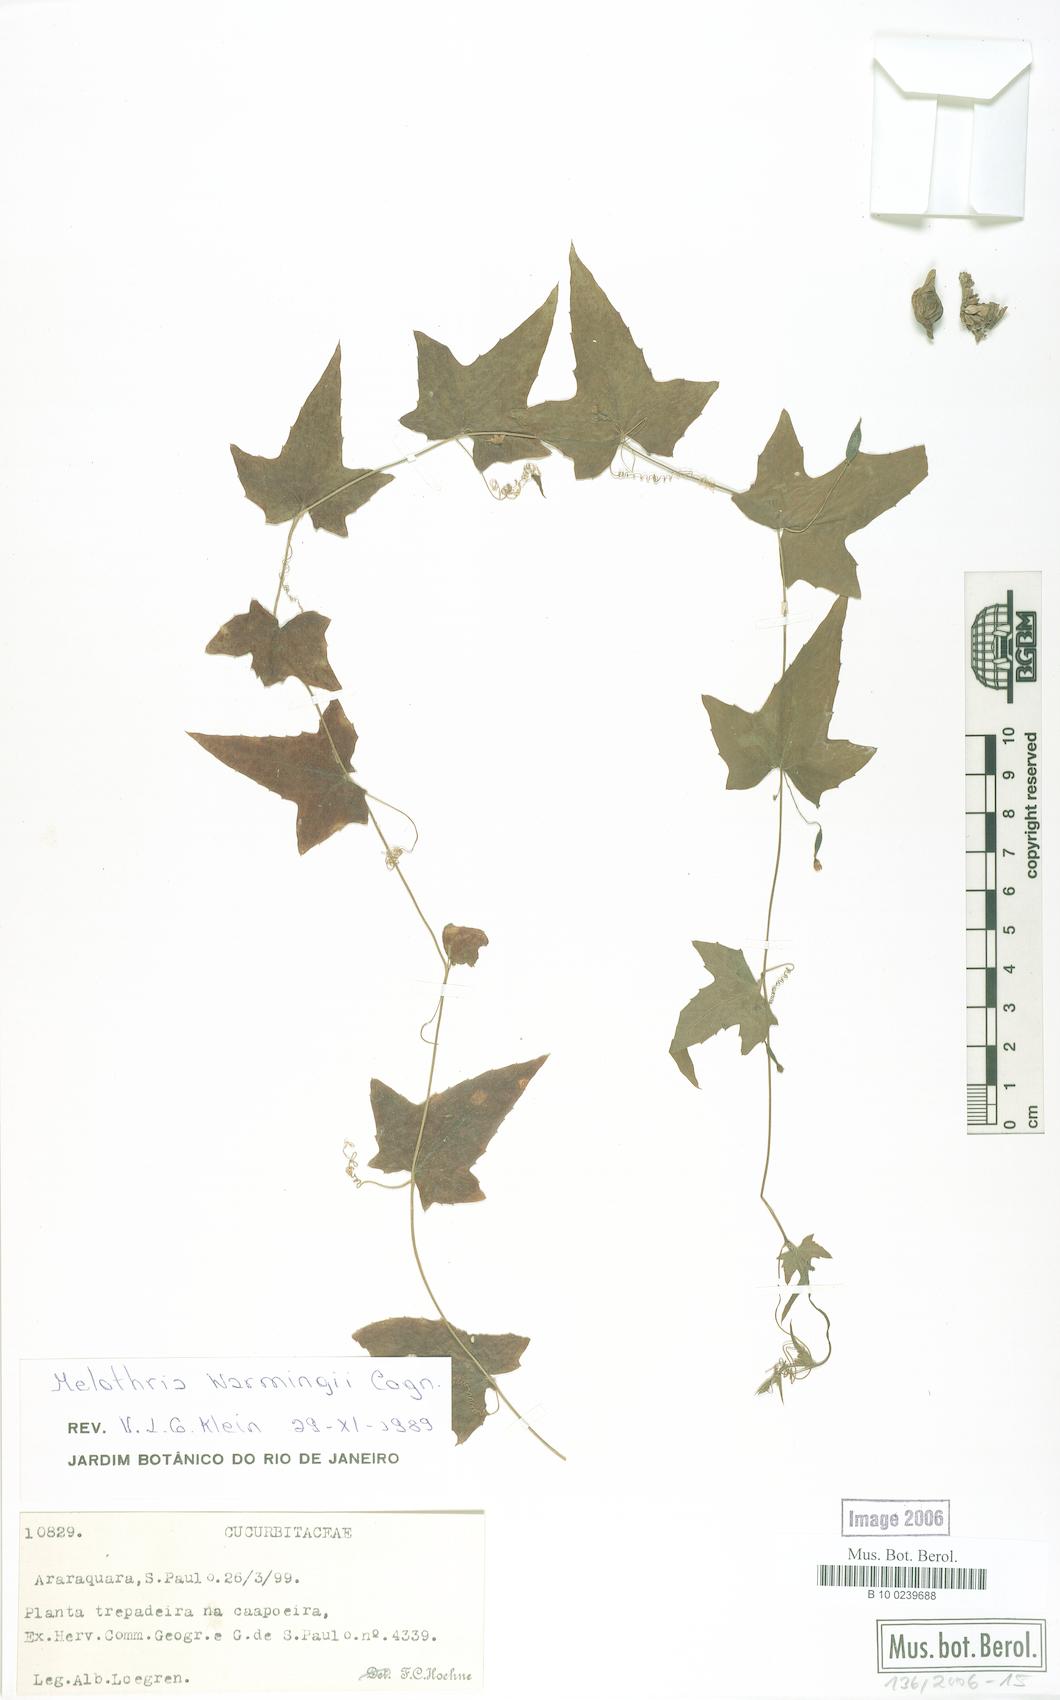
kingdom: Plantae
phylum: Tracheophyta
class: Magnoliopsida
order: Cucurbitales
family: Cucurbitaceae
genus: Melothria
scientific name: Melothria warmingii
